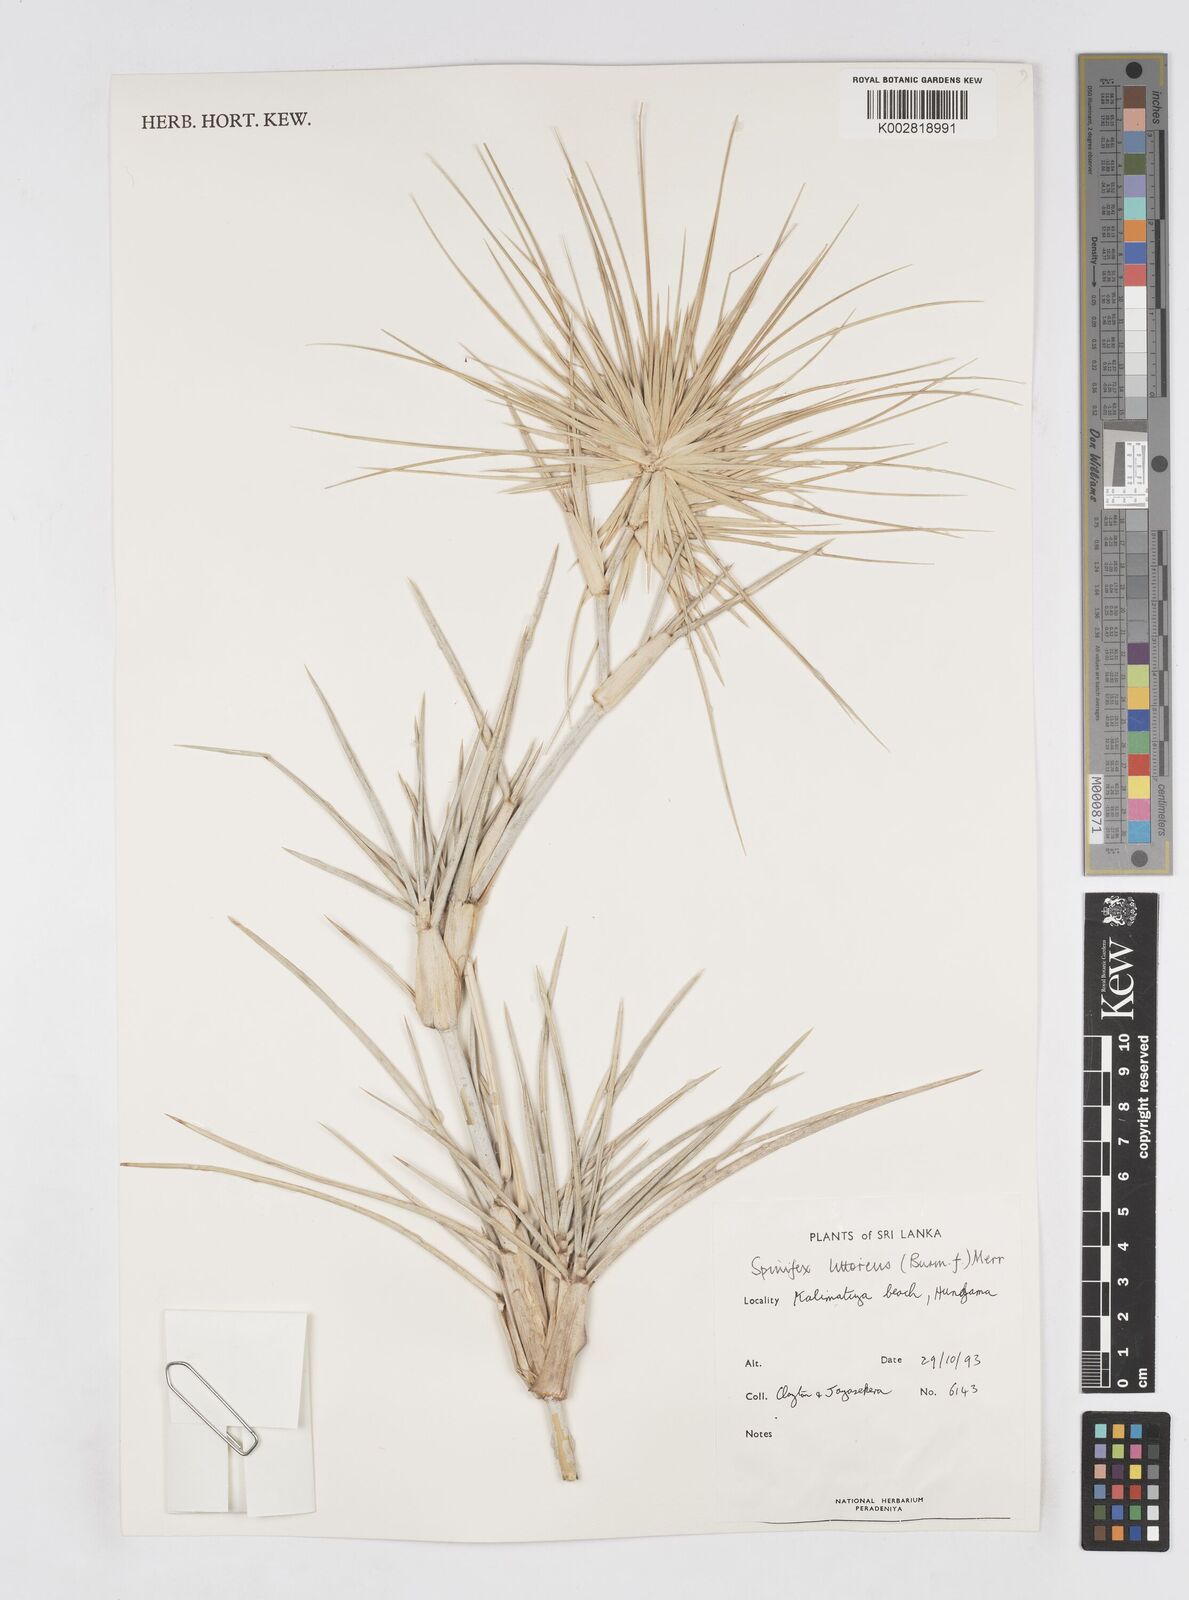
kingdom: Plantae
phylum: Tracheophyta
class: Liliopsida
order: Poales
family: Poaceae
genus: Spinifex
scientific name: Spinifex littoreus
